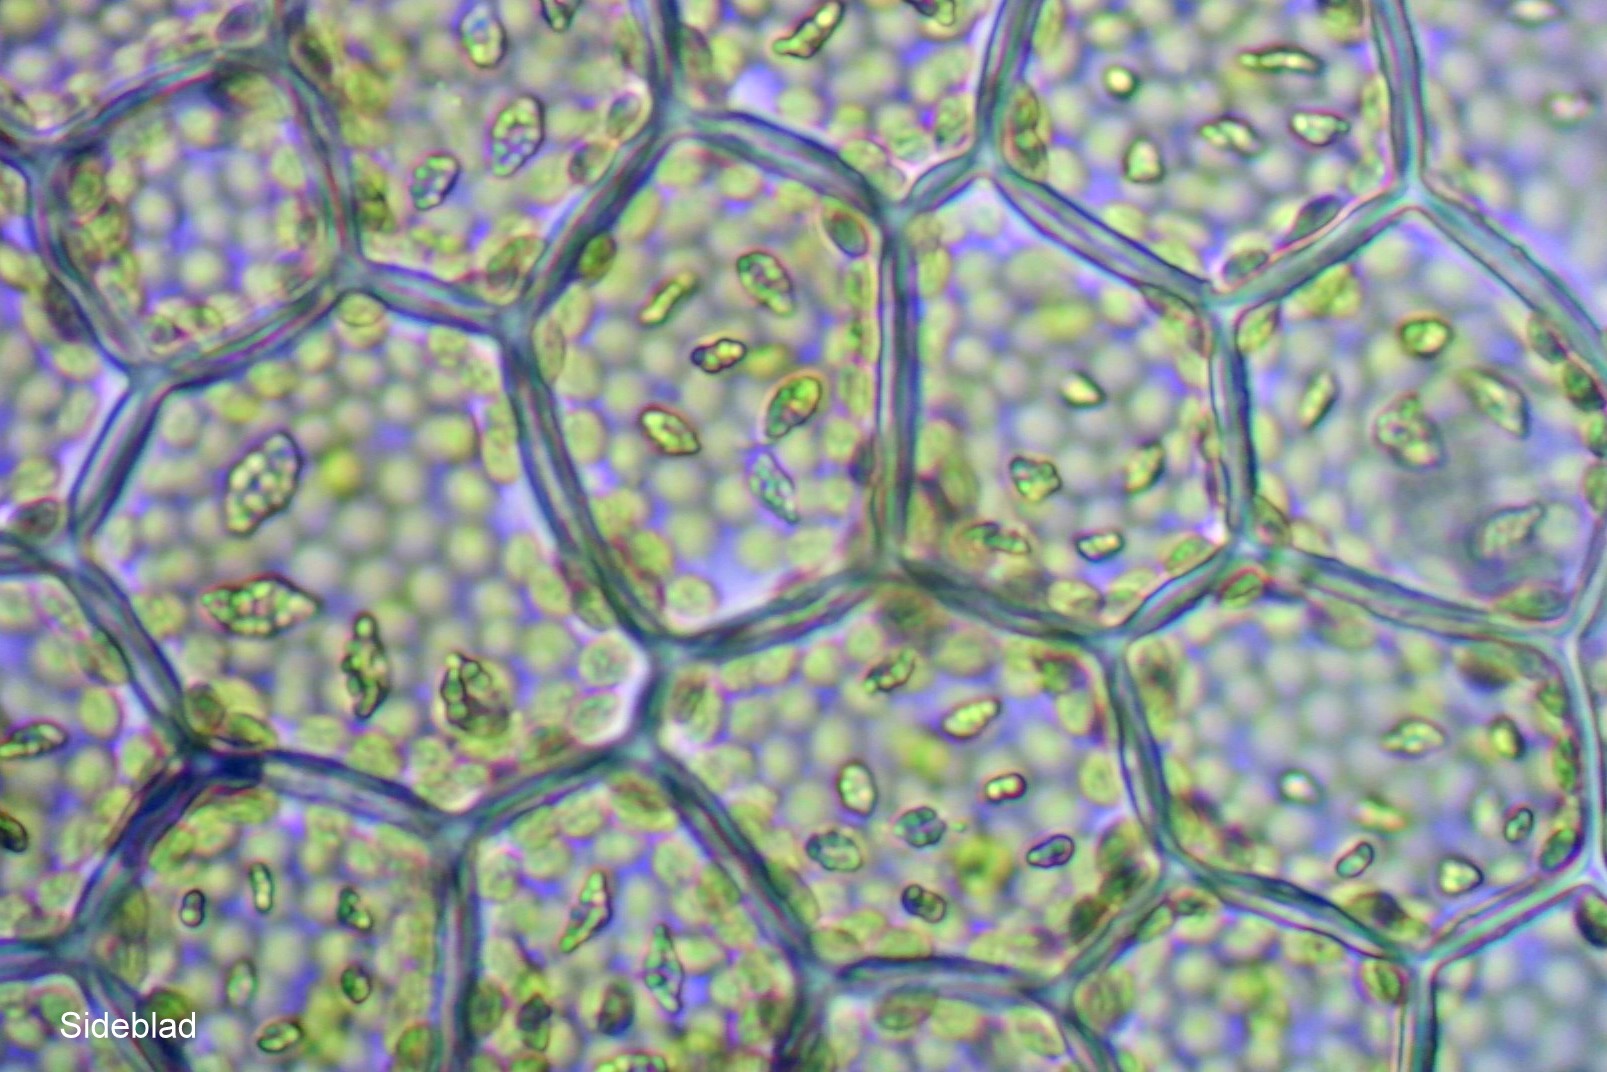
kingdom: Plantae
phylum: Marchantiophyta
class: Jungermanniopsida
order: Jungermanniales
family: Calypogeiaceae
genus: Calypogeia
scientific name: Calypogeia integristipula
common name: Udelt sækmos
